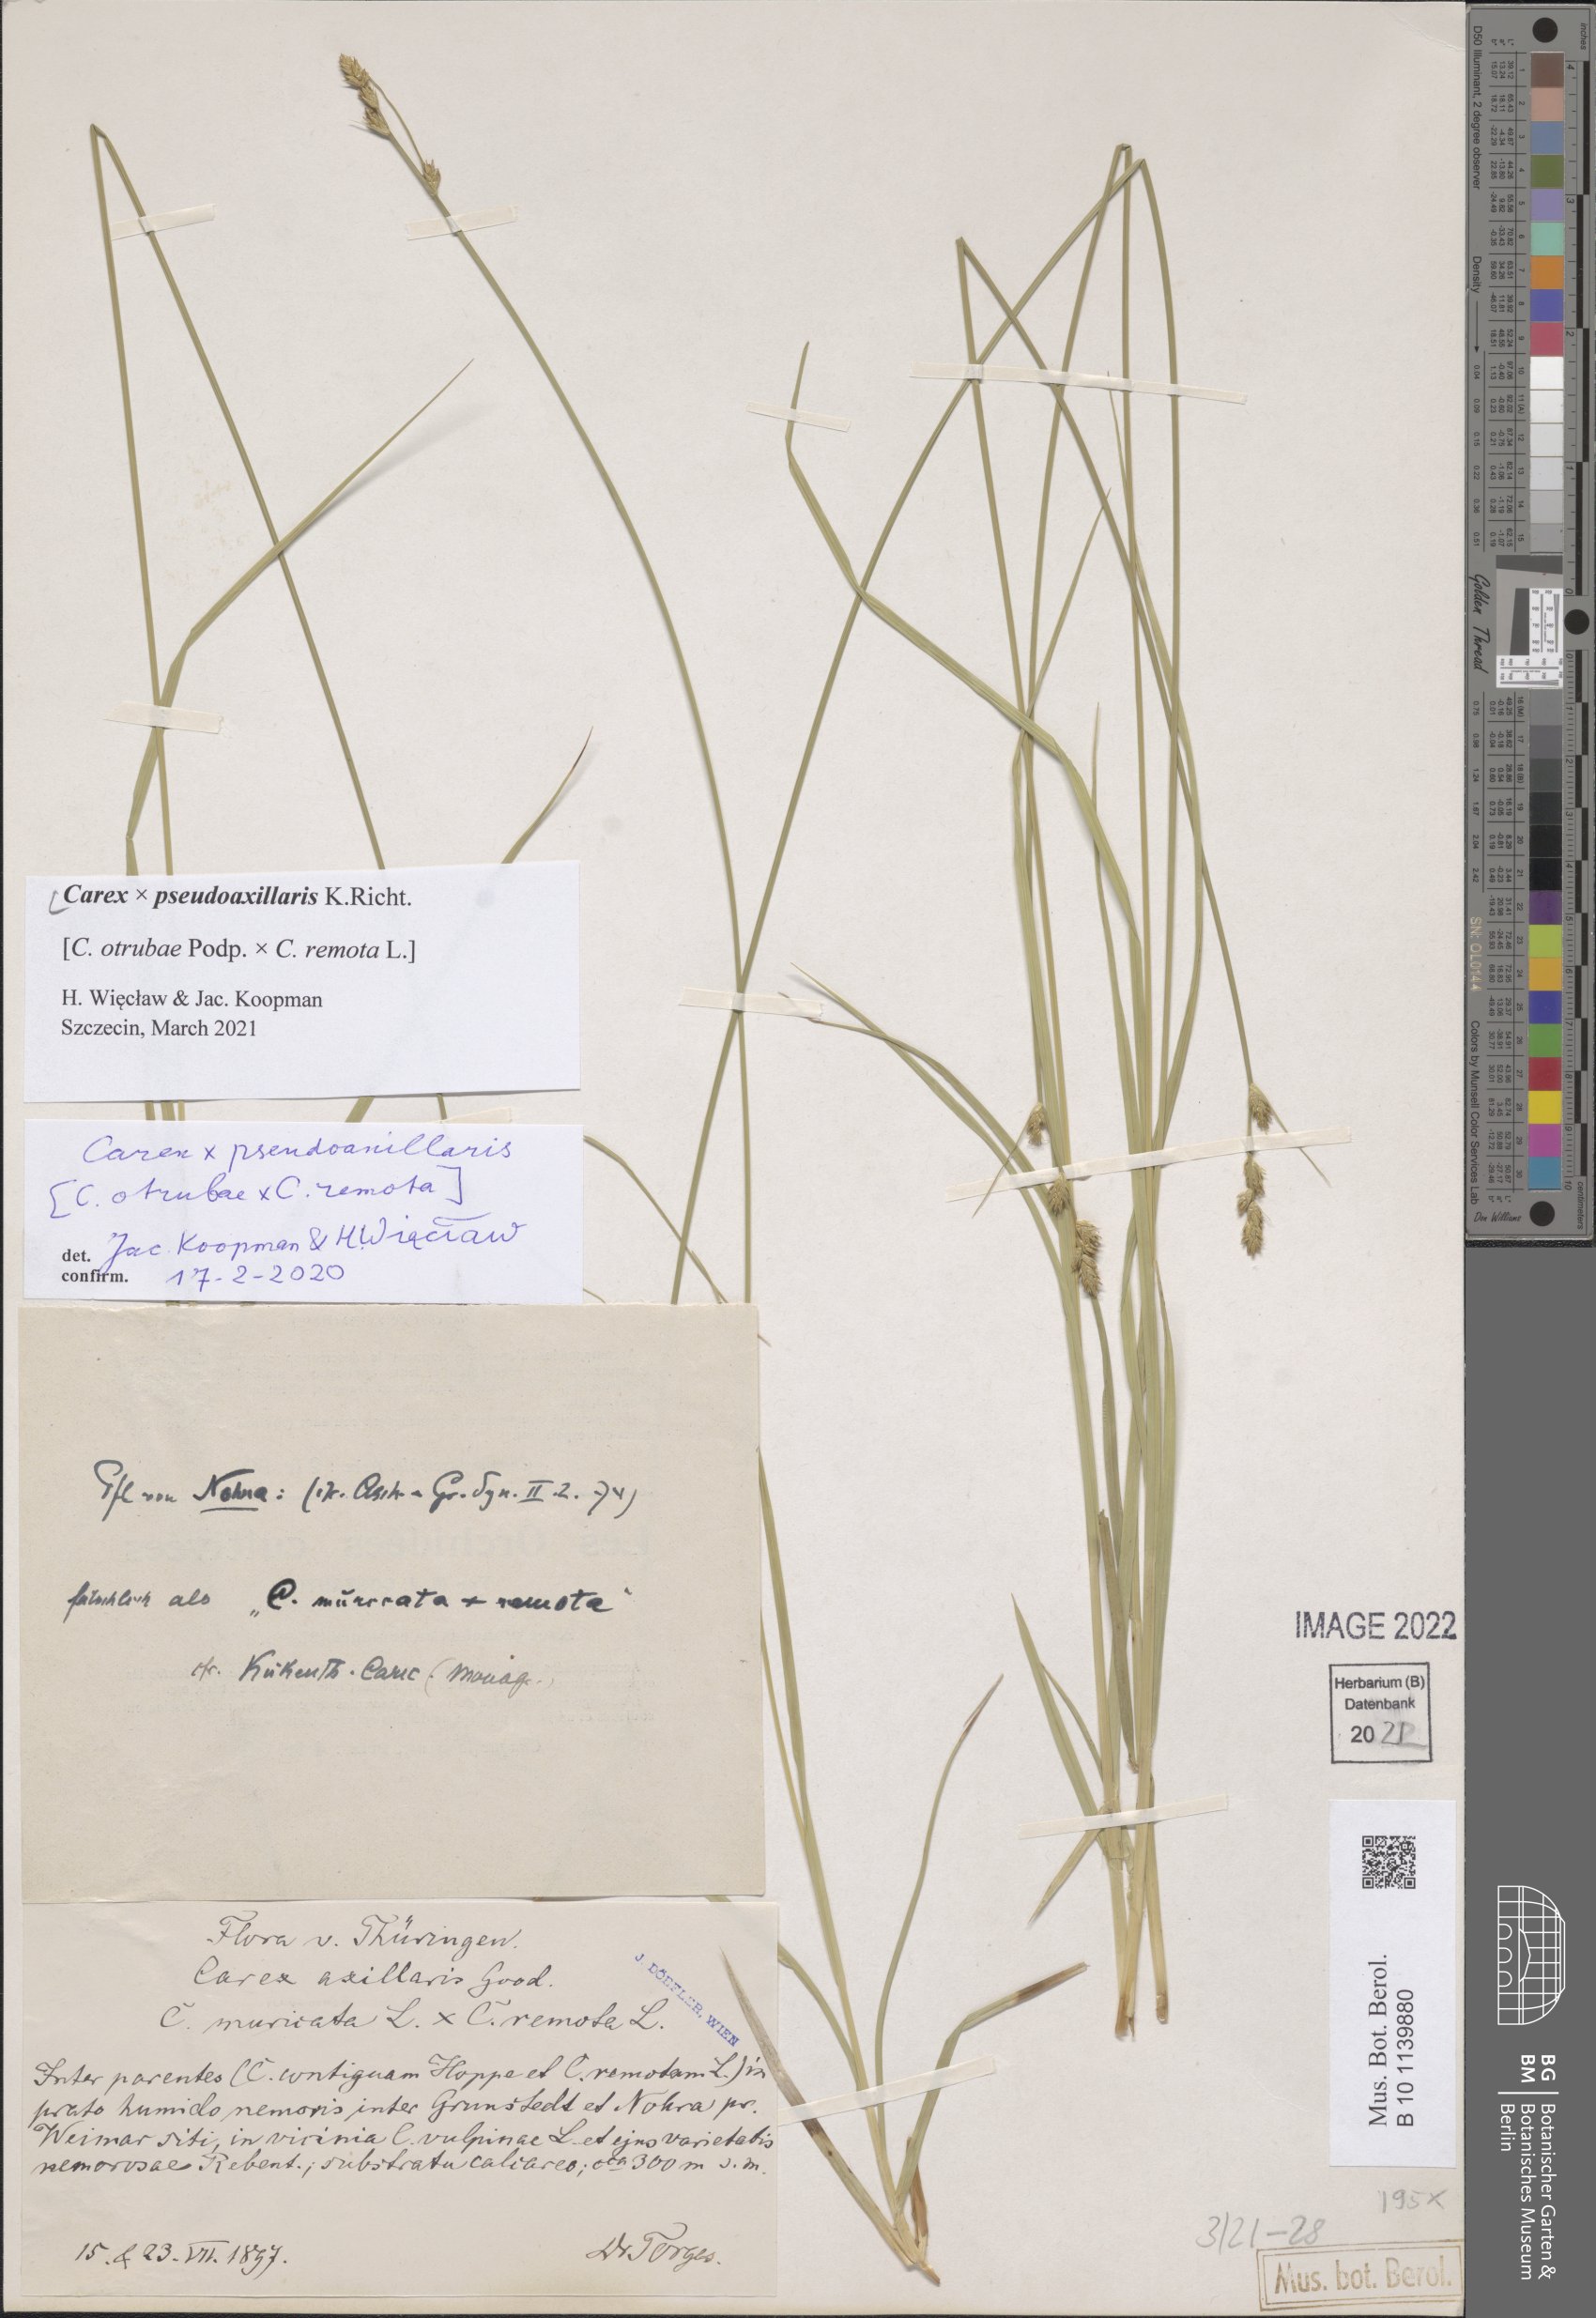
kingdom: Plantae
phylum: Tracheophyta
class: Liliopsida
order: Poales
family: Cyperaceae
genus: Carex
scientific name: Carex pseudoaxillaris
